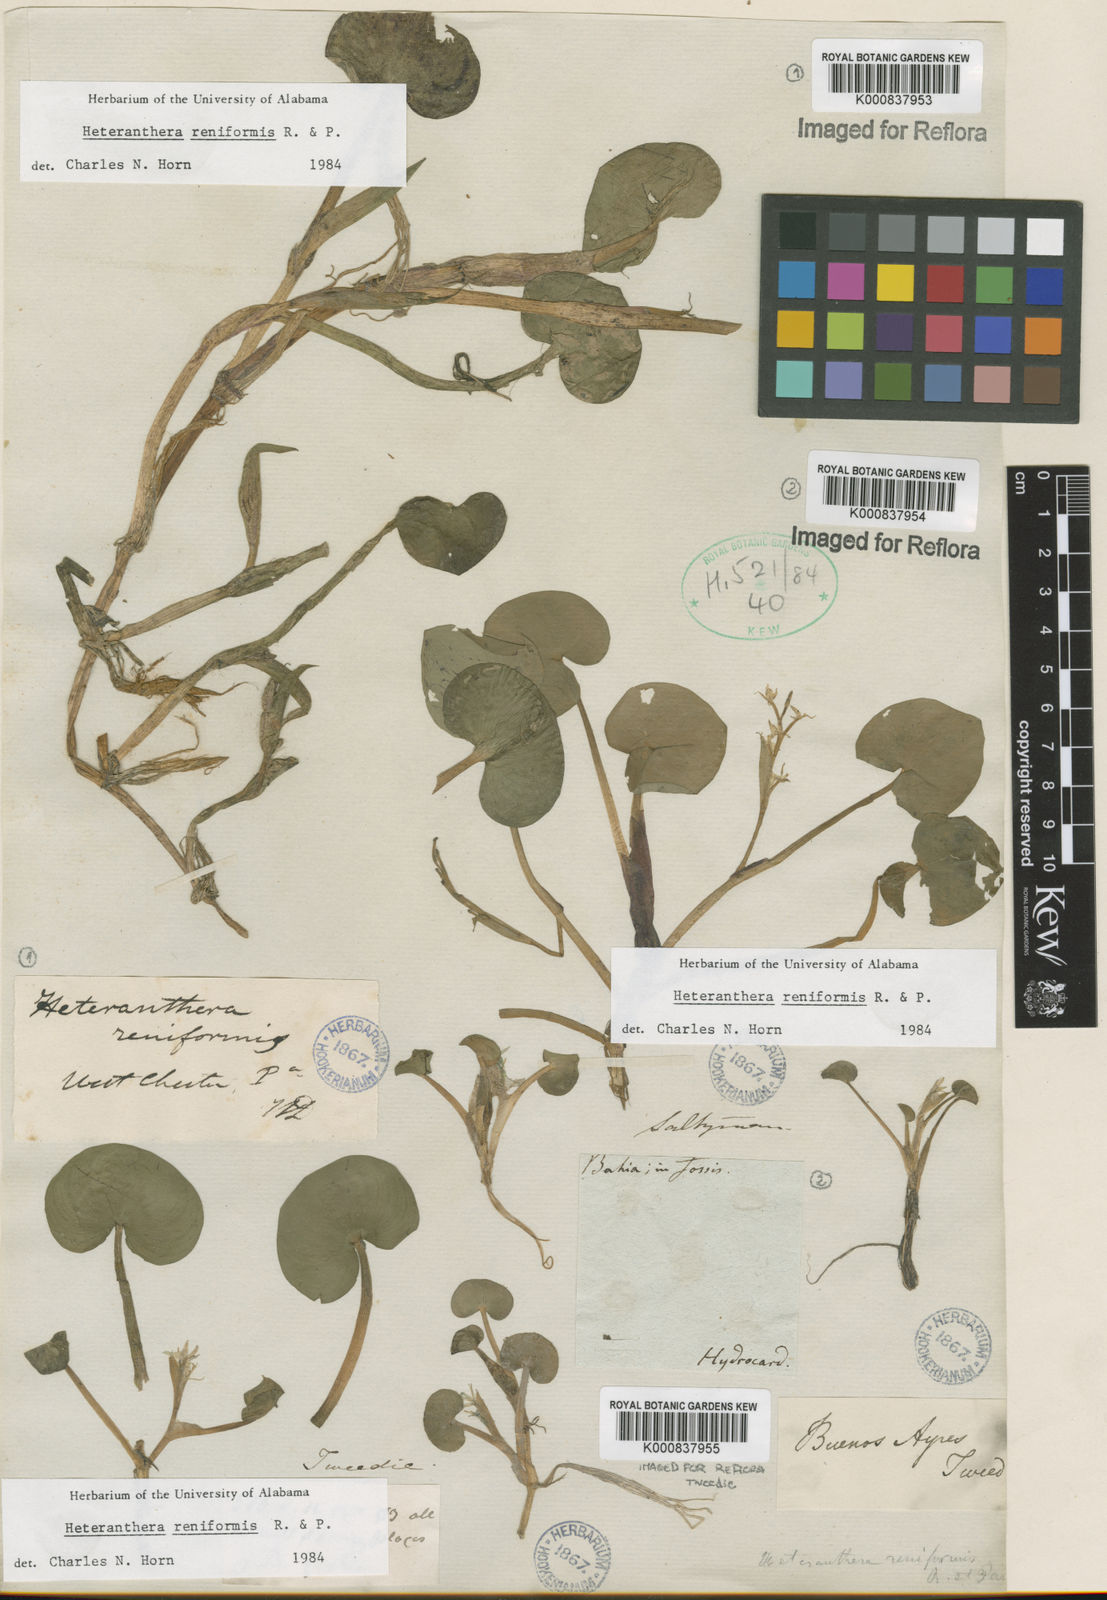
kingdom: Plantae
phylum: Tracheophyta
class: Liliopsida
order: Commelinales
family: Pontederiaceae
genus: Heteranthera
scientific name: Heteranthera reniformis
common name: Kidneyleaf mudplantain
